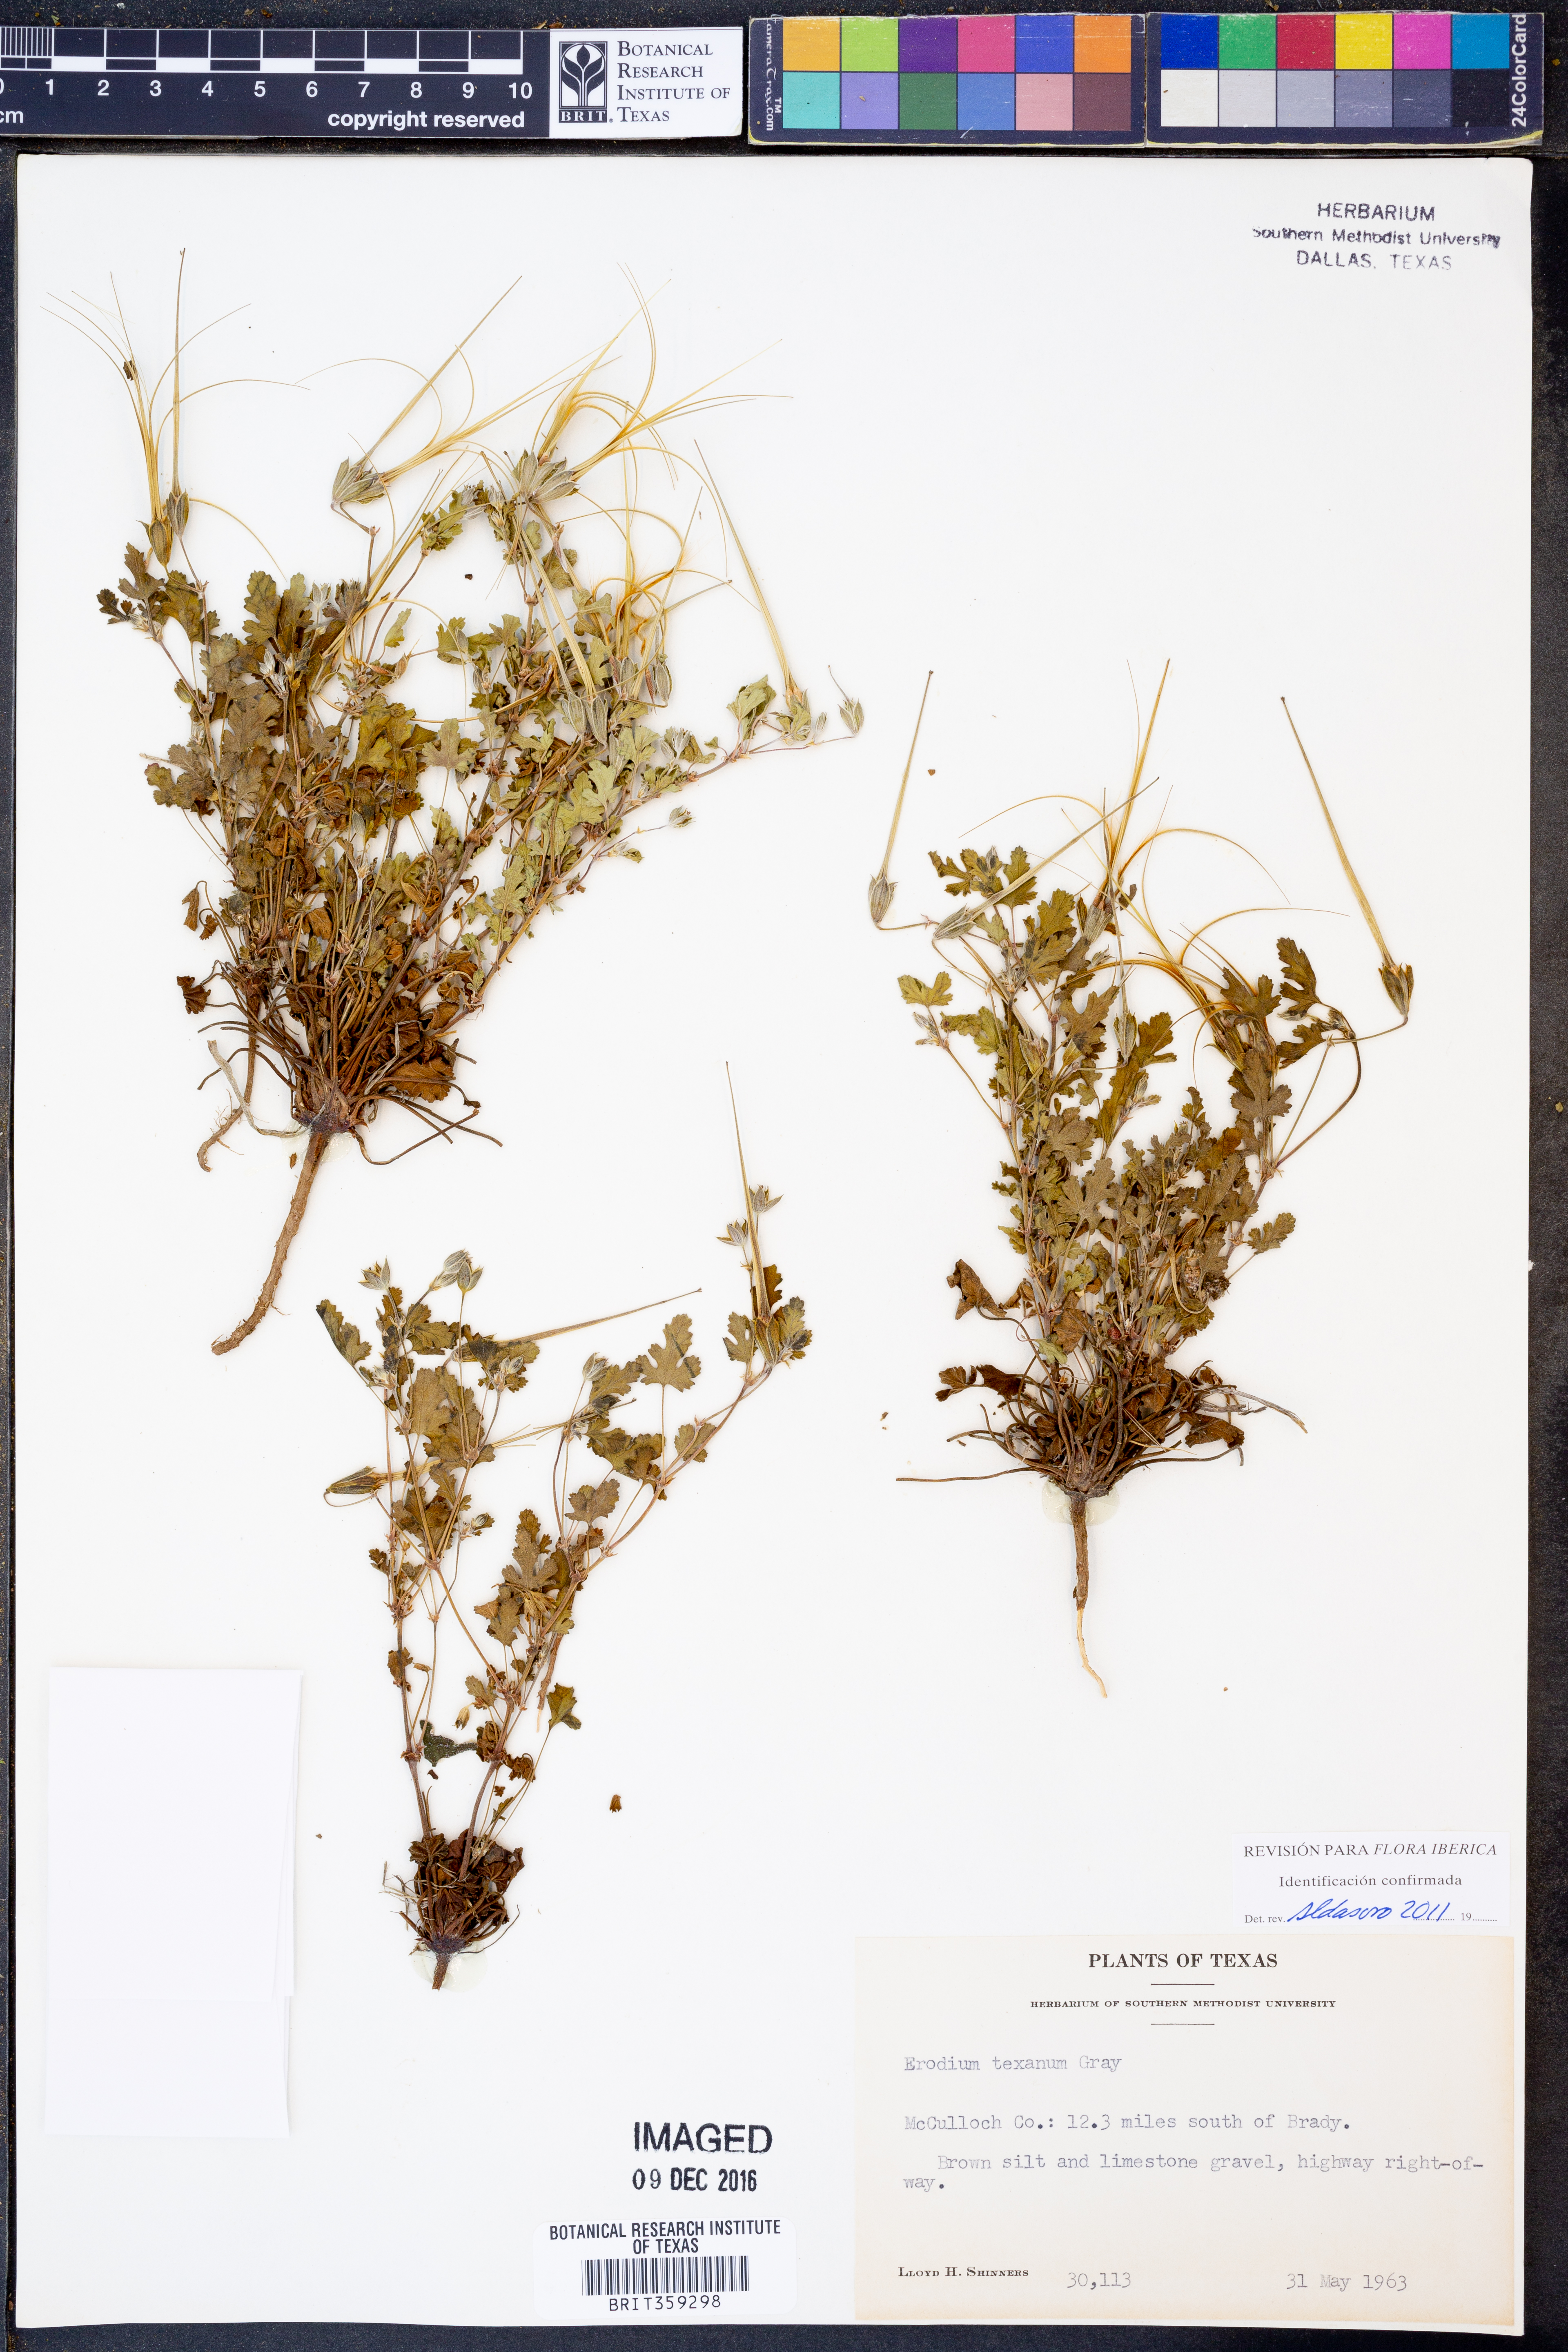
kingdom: Plantae
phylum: Tracheophyta
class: Magnoliopsida
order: Geraniales
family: Geraniaceae
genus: Erodium
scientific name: Erodium texanum
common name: Texas stork's-bill
